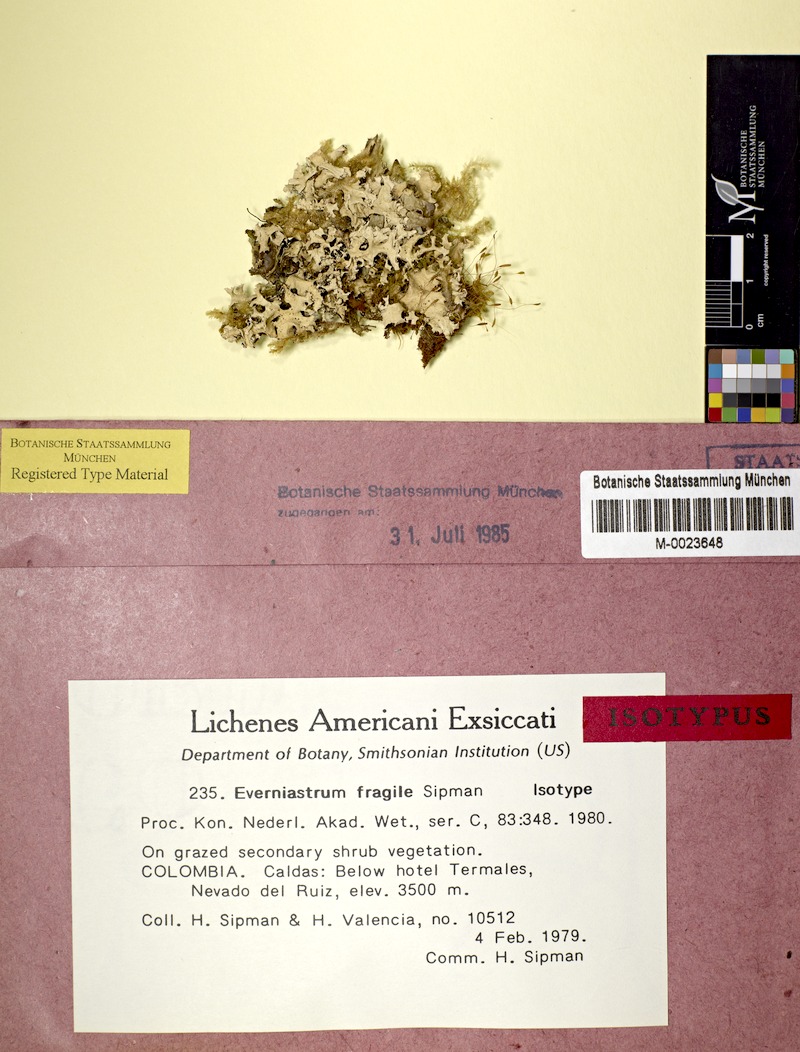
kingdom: Fungi
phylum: Ascomycota
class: Lecanoromycetes
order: Lecanorales
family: Parmeliaceae
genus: Hypotrachyna
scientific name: Hypotrachyna fragilis
